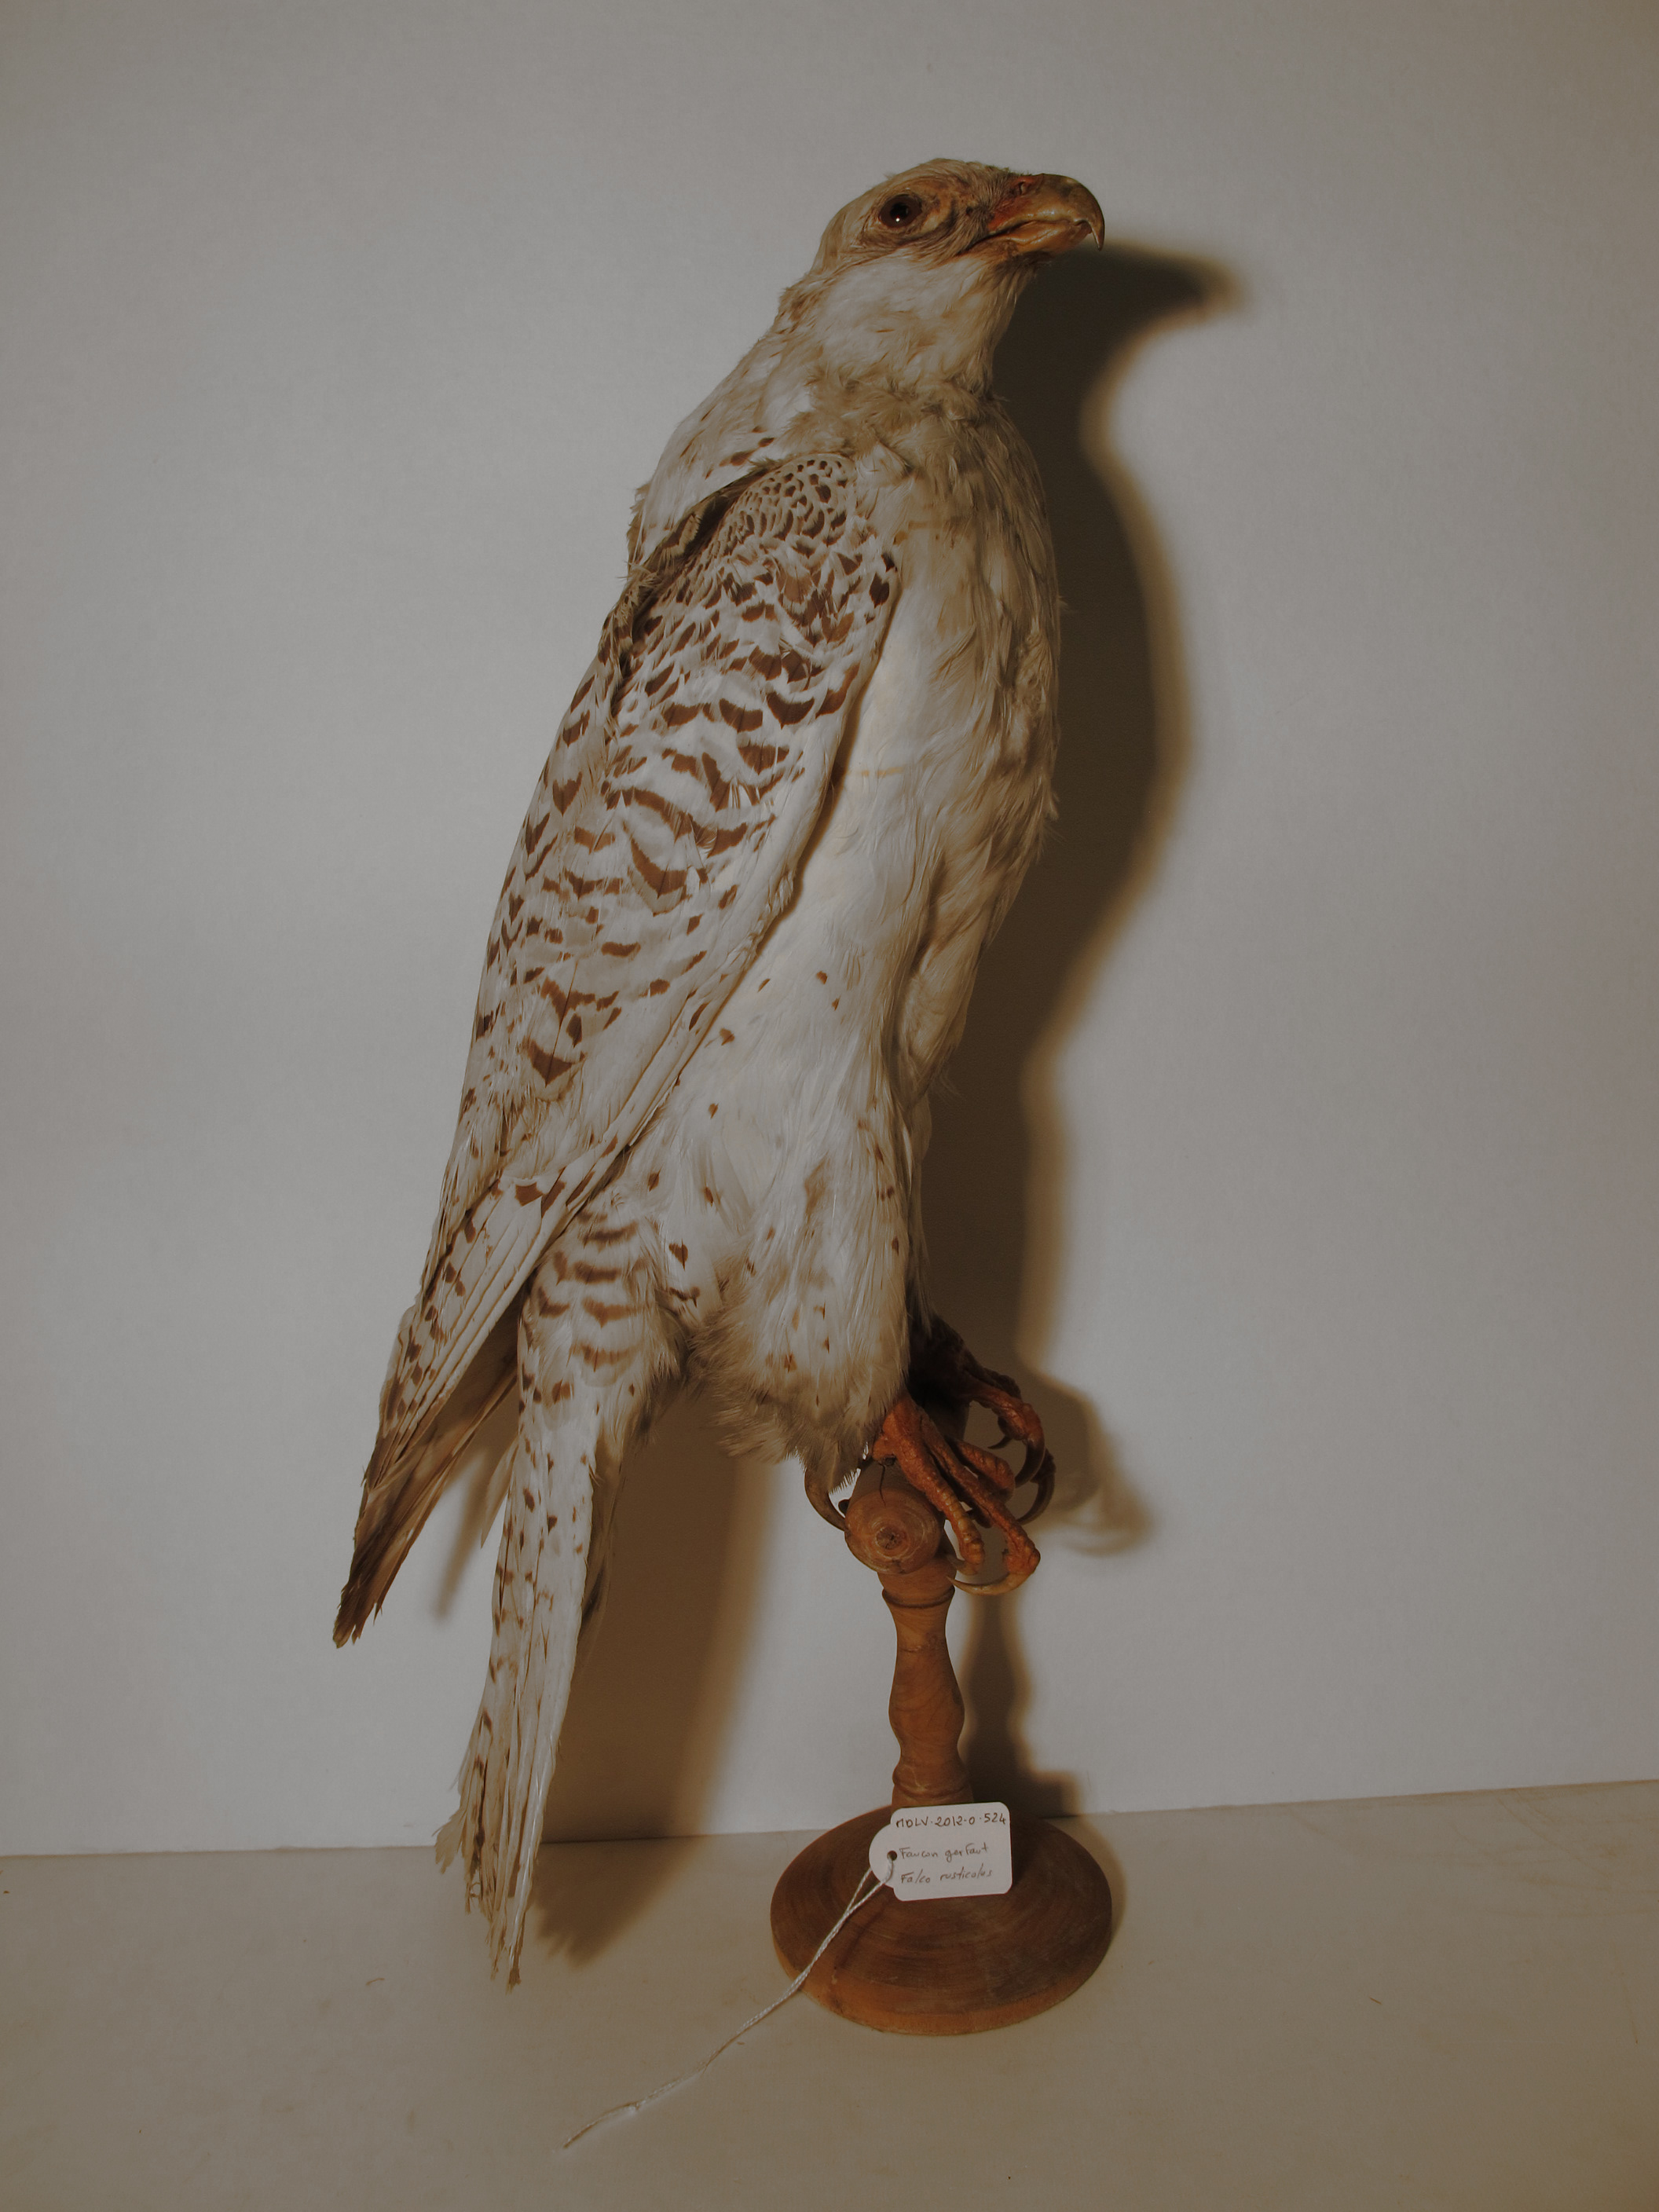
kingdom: Animalia
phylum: Chordata
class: Aves
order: Falconiformes
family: Falconidae
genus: Falco
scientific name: Falco rusticolus
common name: Gyrfalcon
